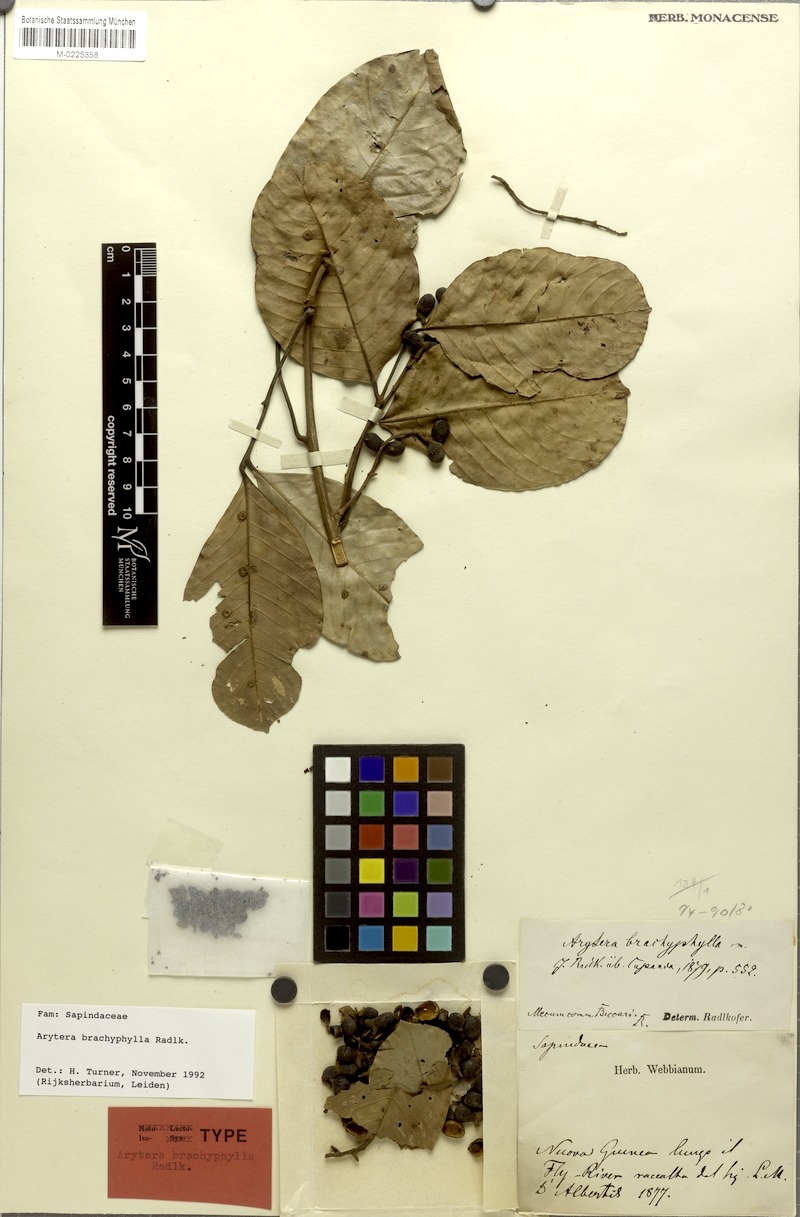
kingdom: Plantae
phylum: Tracheophyta
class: Magnoliopsida
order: Sapindales
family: Sapindaceae
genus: Arytera
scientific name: Arytera brachyphylla
